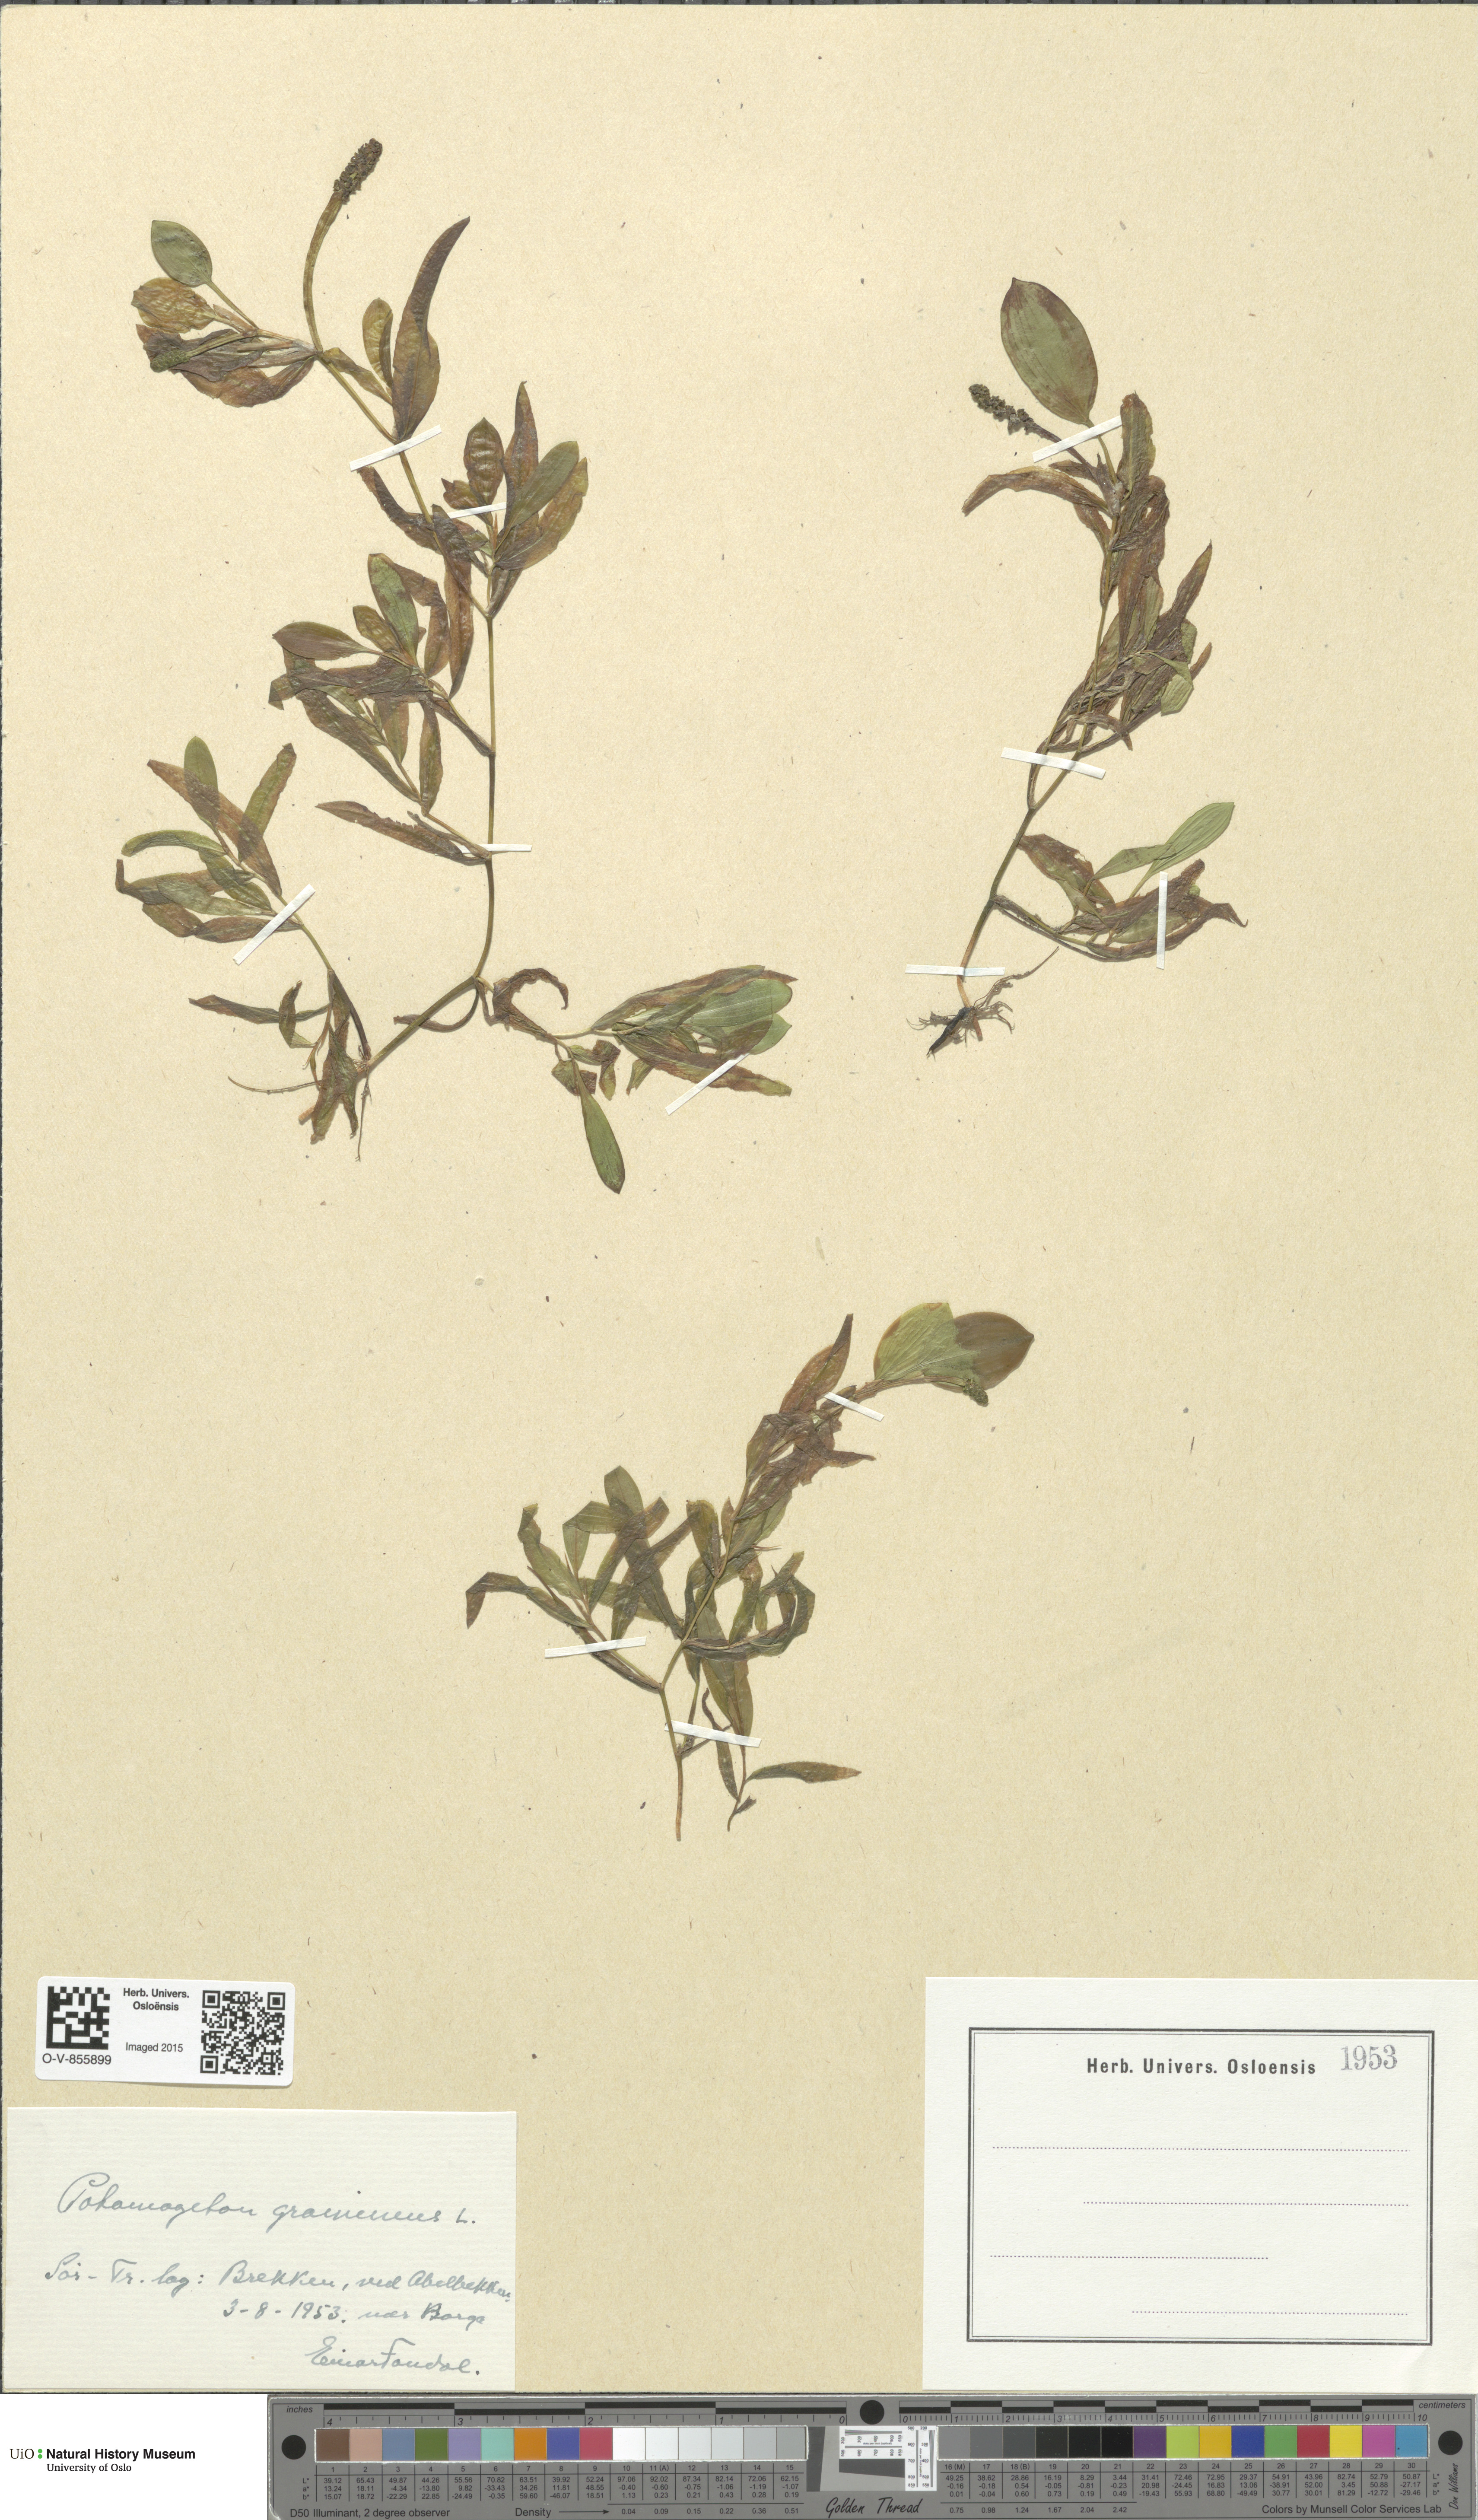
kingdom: Plantae
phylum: Tracheophyta
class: Liliopsida
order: Alismatales
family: Potamogetonaceae
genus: Potamogeton
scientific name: Potamogeton gramineus
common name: Various-leaved pondweed
